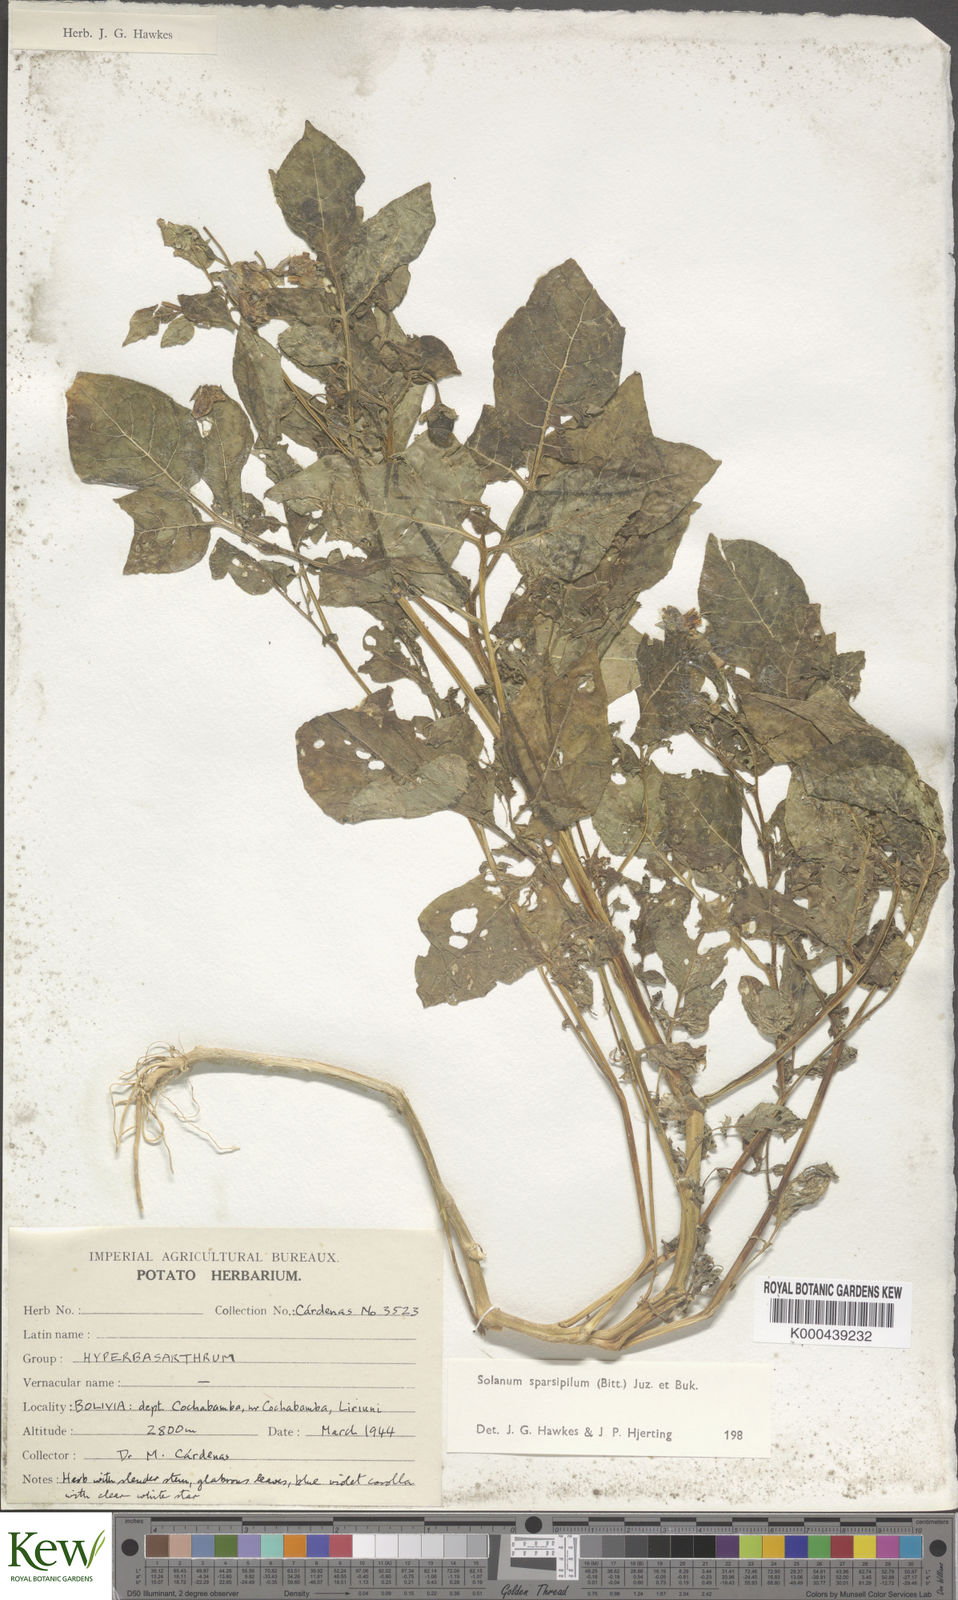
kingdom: Plantae
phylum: Tracheophyta
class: Magnoliopsida
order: Solanales
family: Solanaceae
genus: Solanum
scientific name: Solanum brevicaule
